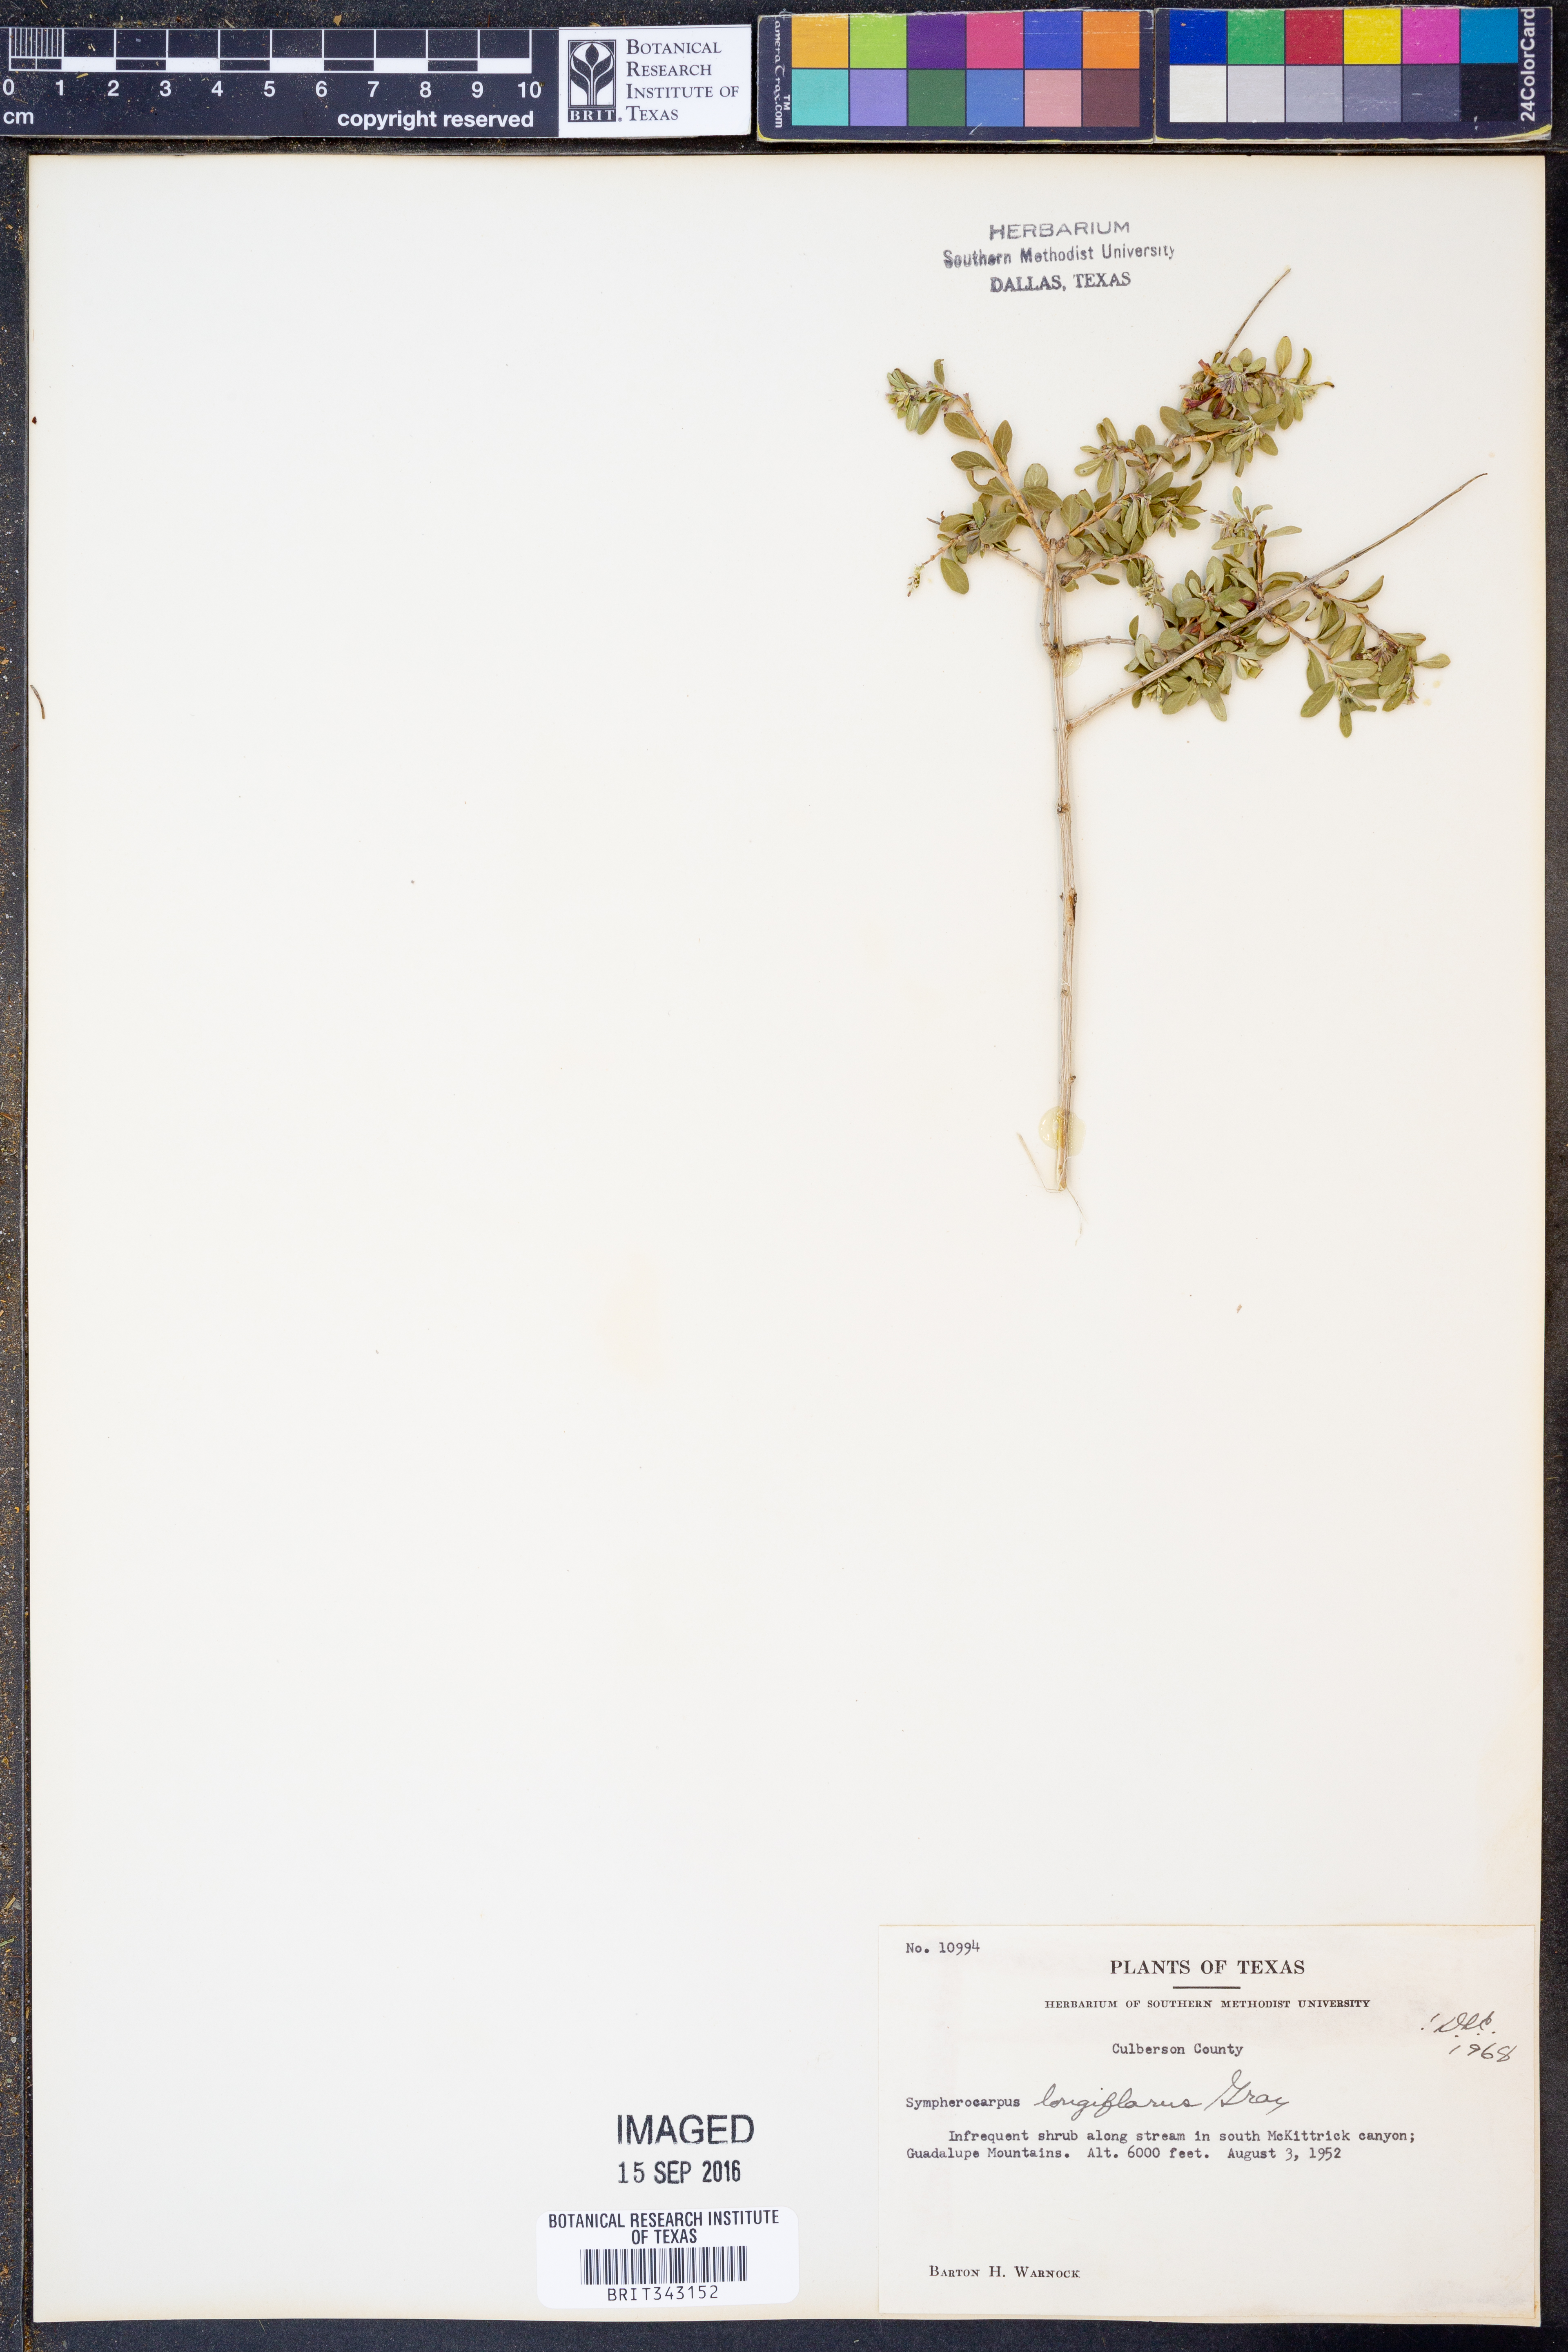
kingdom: Plantae
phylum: Tracheophyta
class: Magnoliopsida
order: Dipsacales
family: Caprifoliaceae
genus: Symphoricarpos
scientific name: Symphoricarpos longiflorus
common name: Fragrant snowberry
